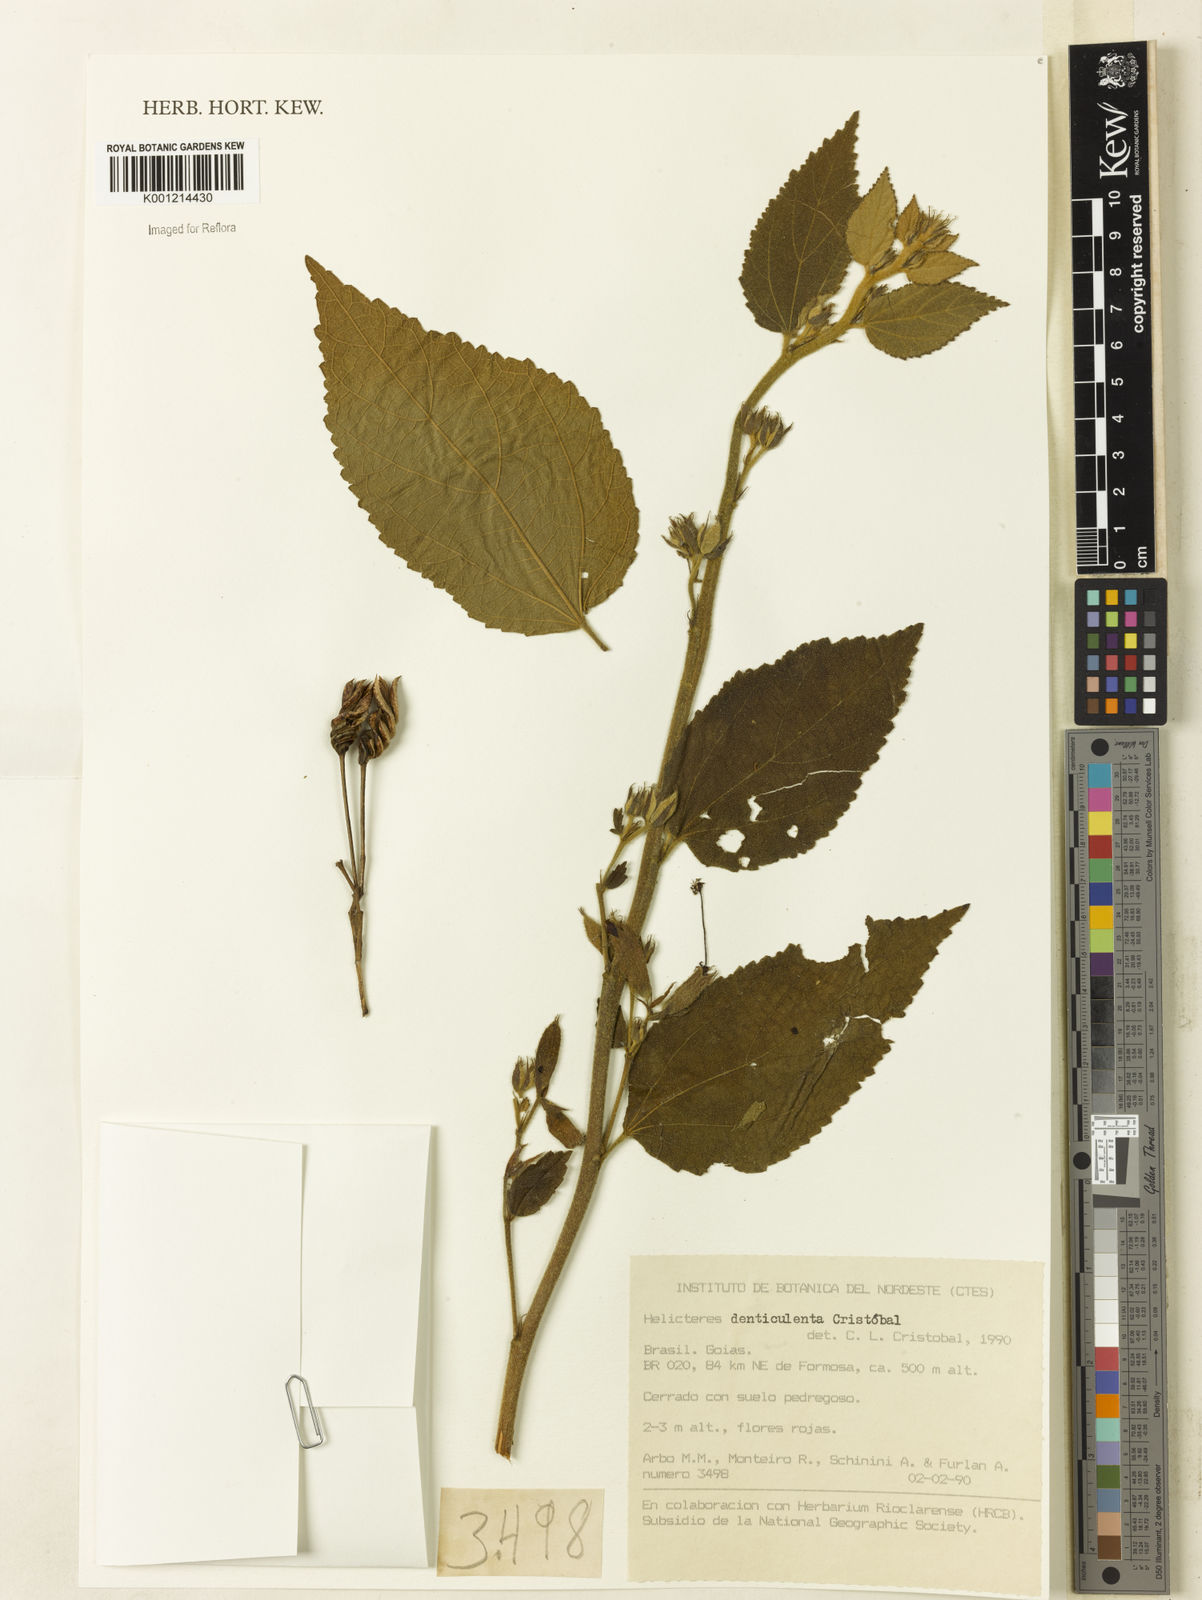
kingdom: Plantae
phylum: Tracheophyta
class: Magnoliopsida
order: Malvales
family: Malvaceae
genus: Helicteres
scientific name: Helicteres
